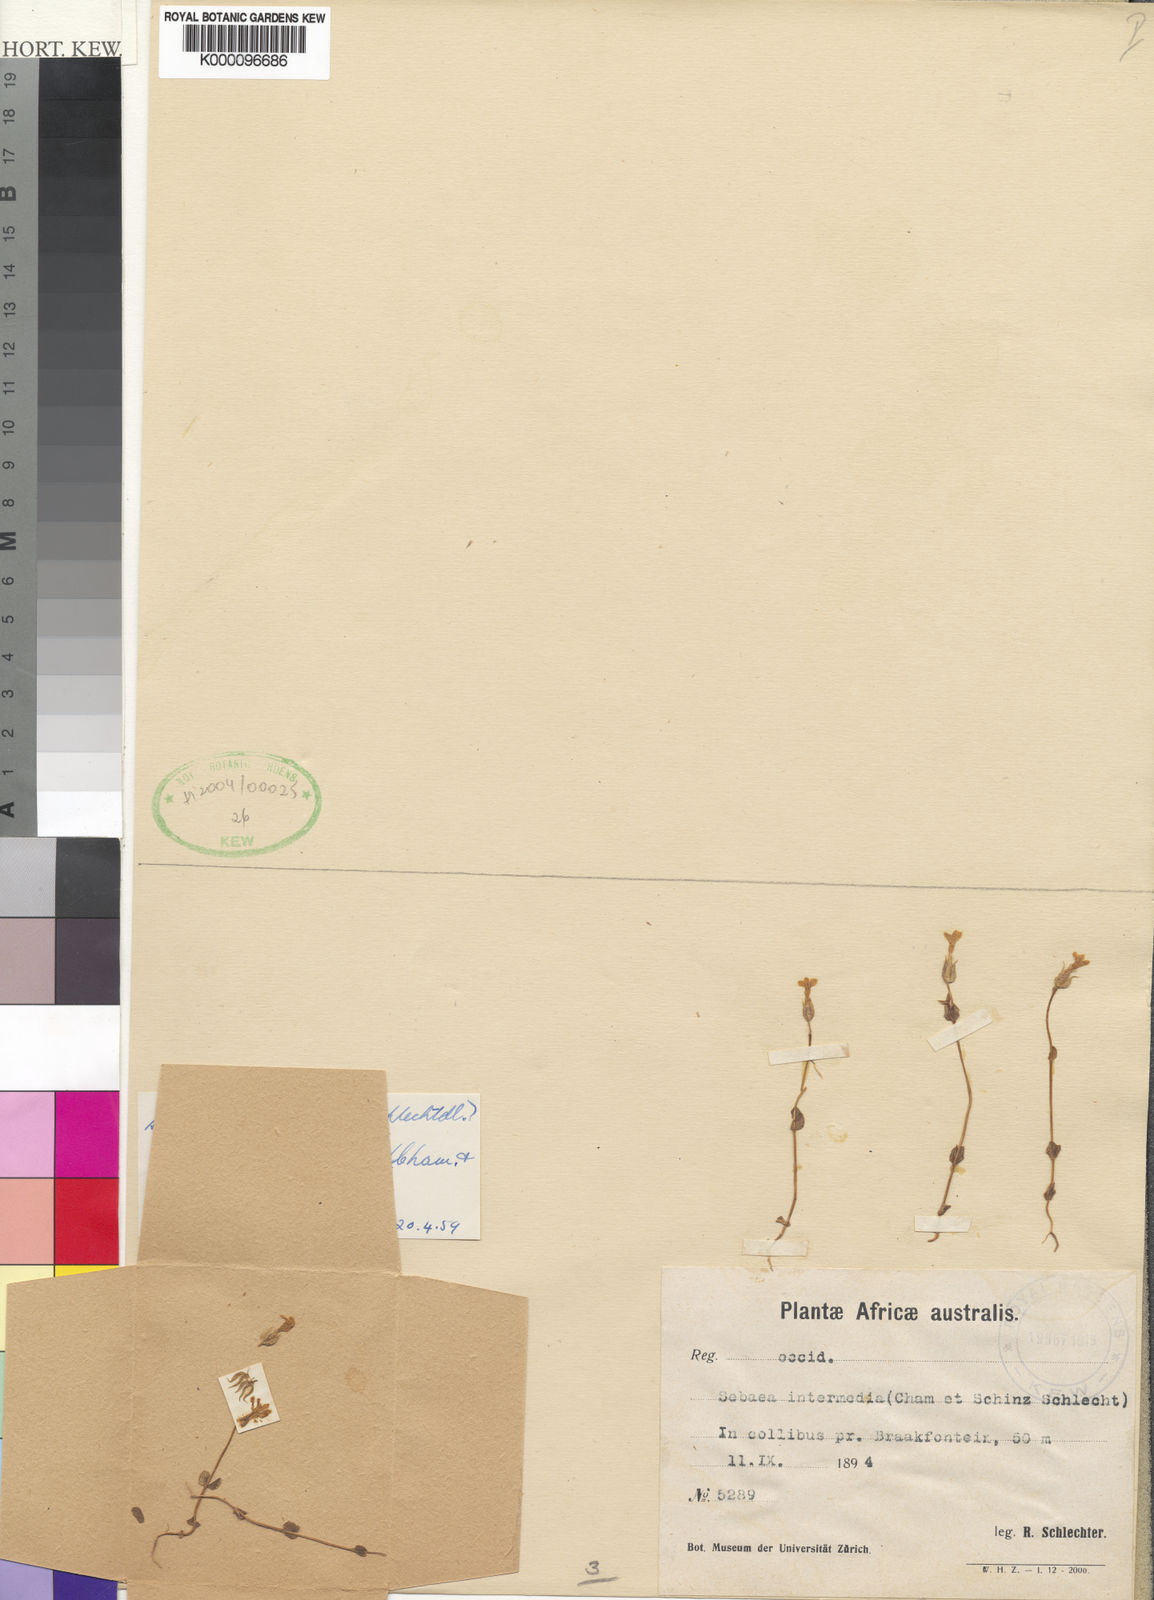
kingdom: Plantae
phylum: Tracheophyta
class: Magnoliopsida
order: Gentianales
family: Gentianaceae
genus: Sebaea
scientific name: Sebaea micrantha
